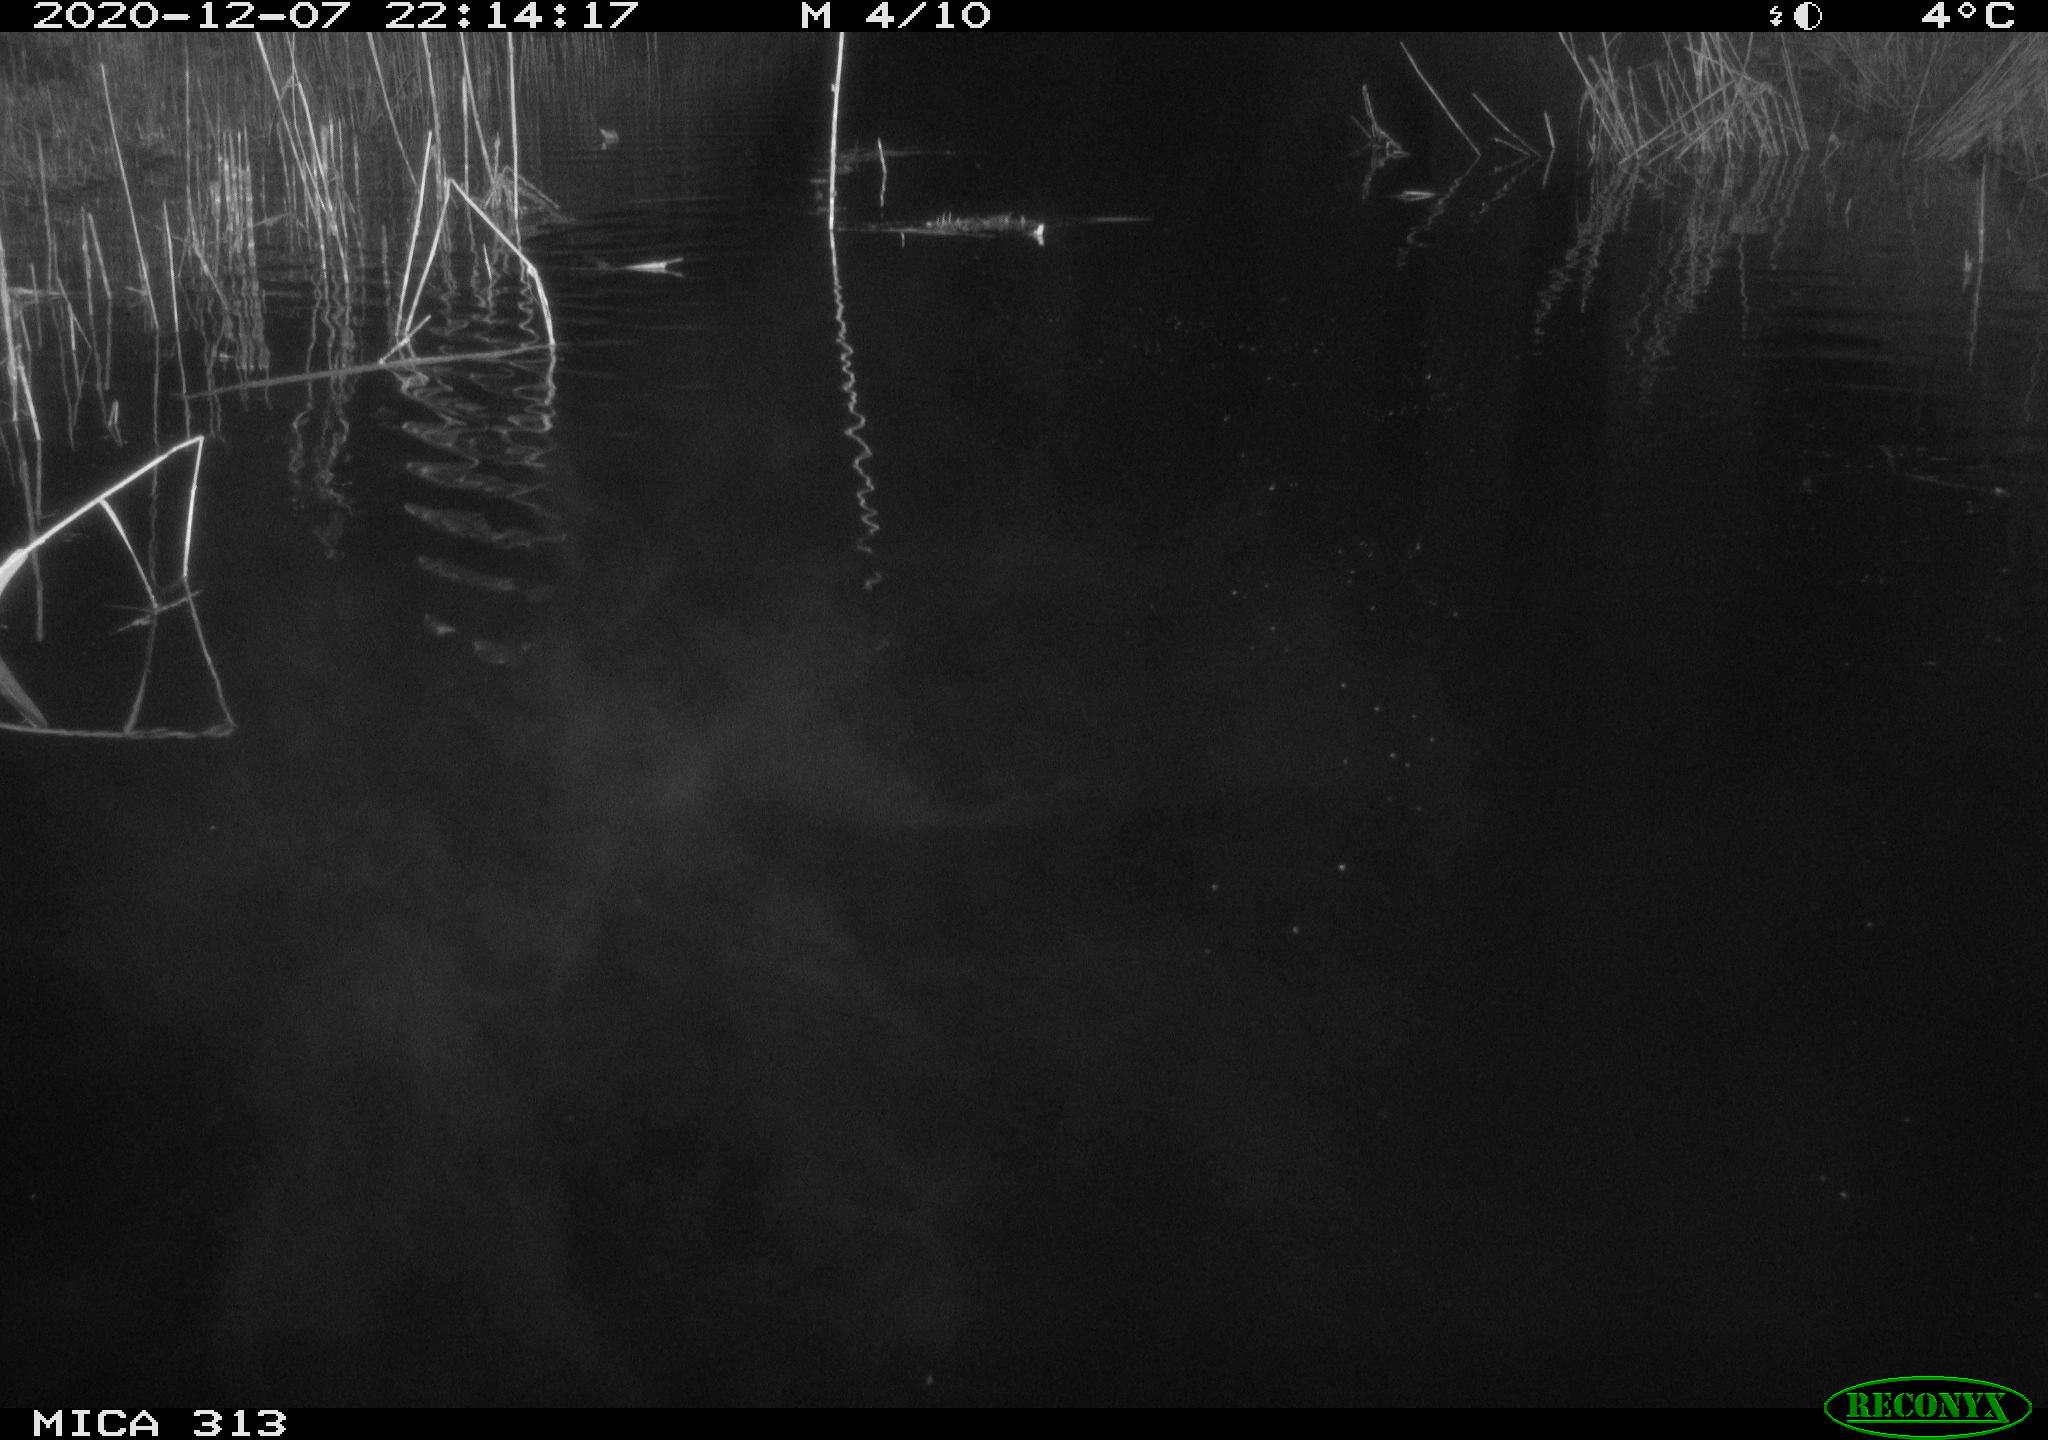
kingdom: Animalia
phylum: Chordata
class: Mammalia
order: Rodentia
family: Muridae
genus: Rattus
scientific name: Rattus norvegicus
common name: Brown rat
